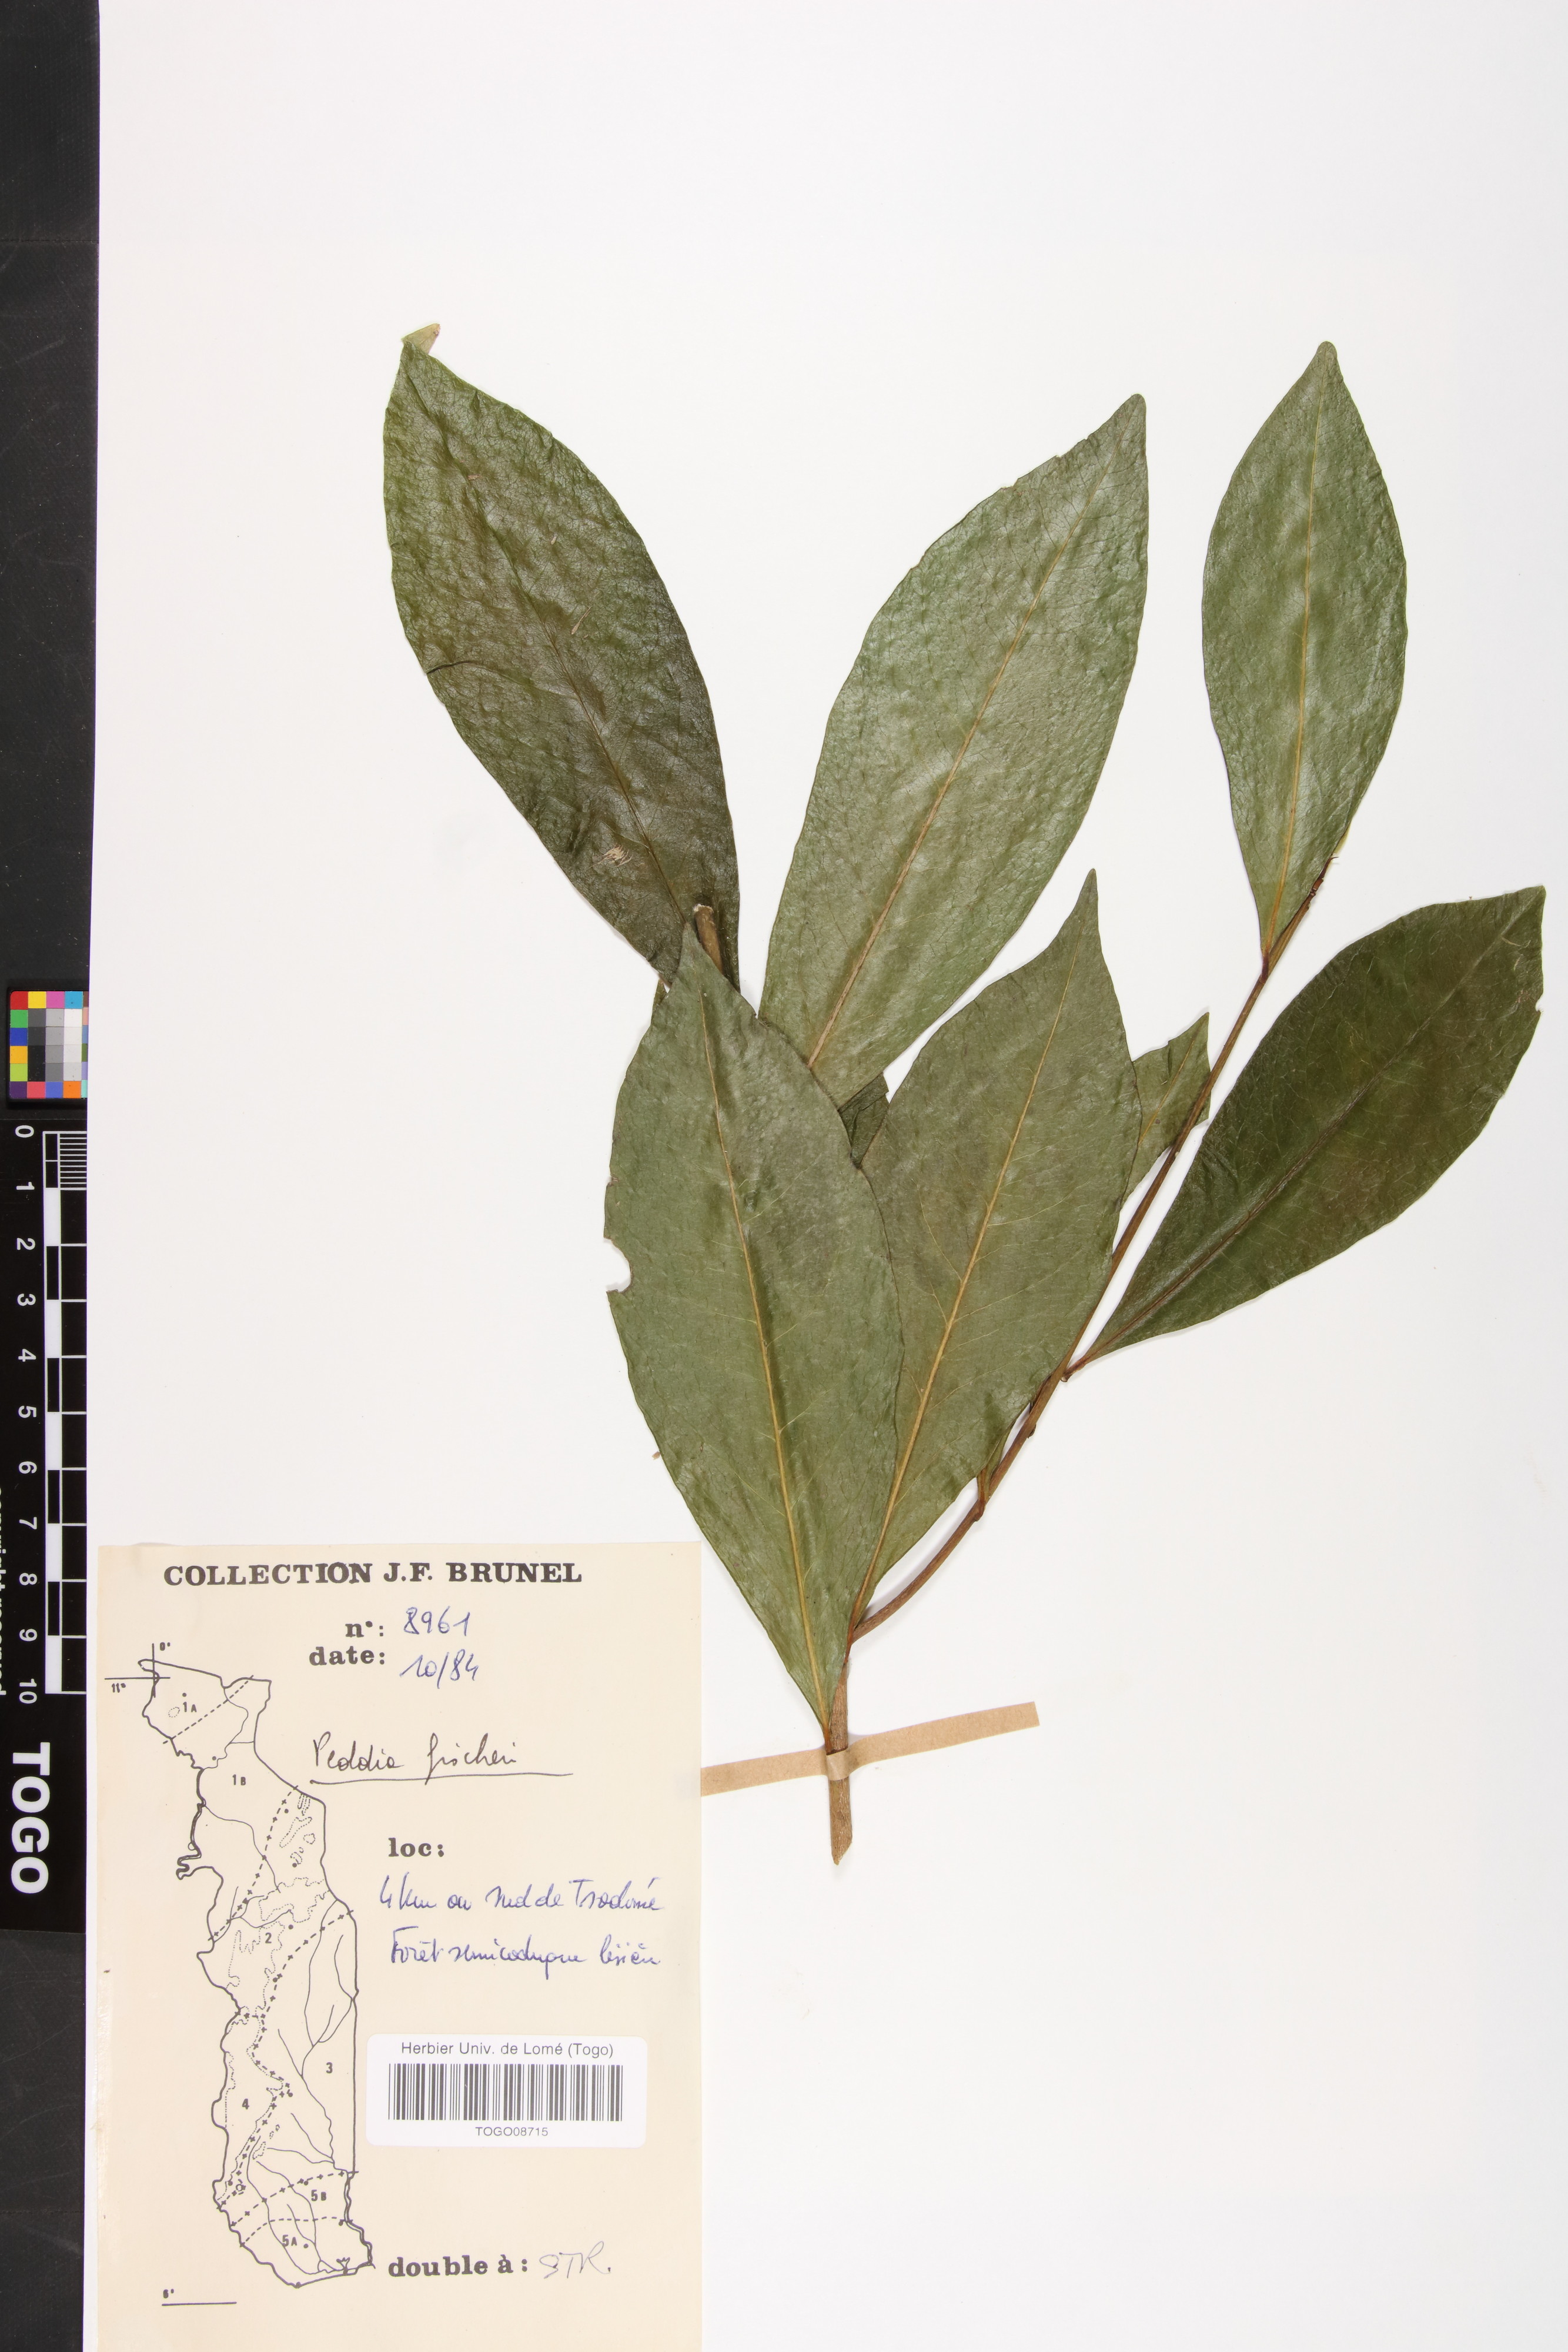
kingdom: Plantae
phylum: Tracheophyta
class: Magnoliopsida
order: Malvales
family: Thymelaeaceae
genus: Peddiea
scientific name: Peddiea fischeri
